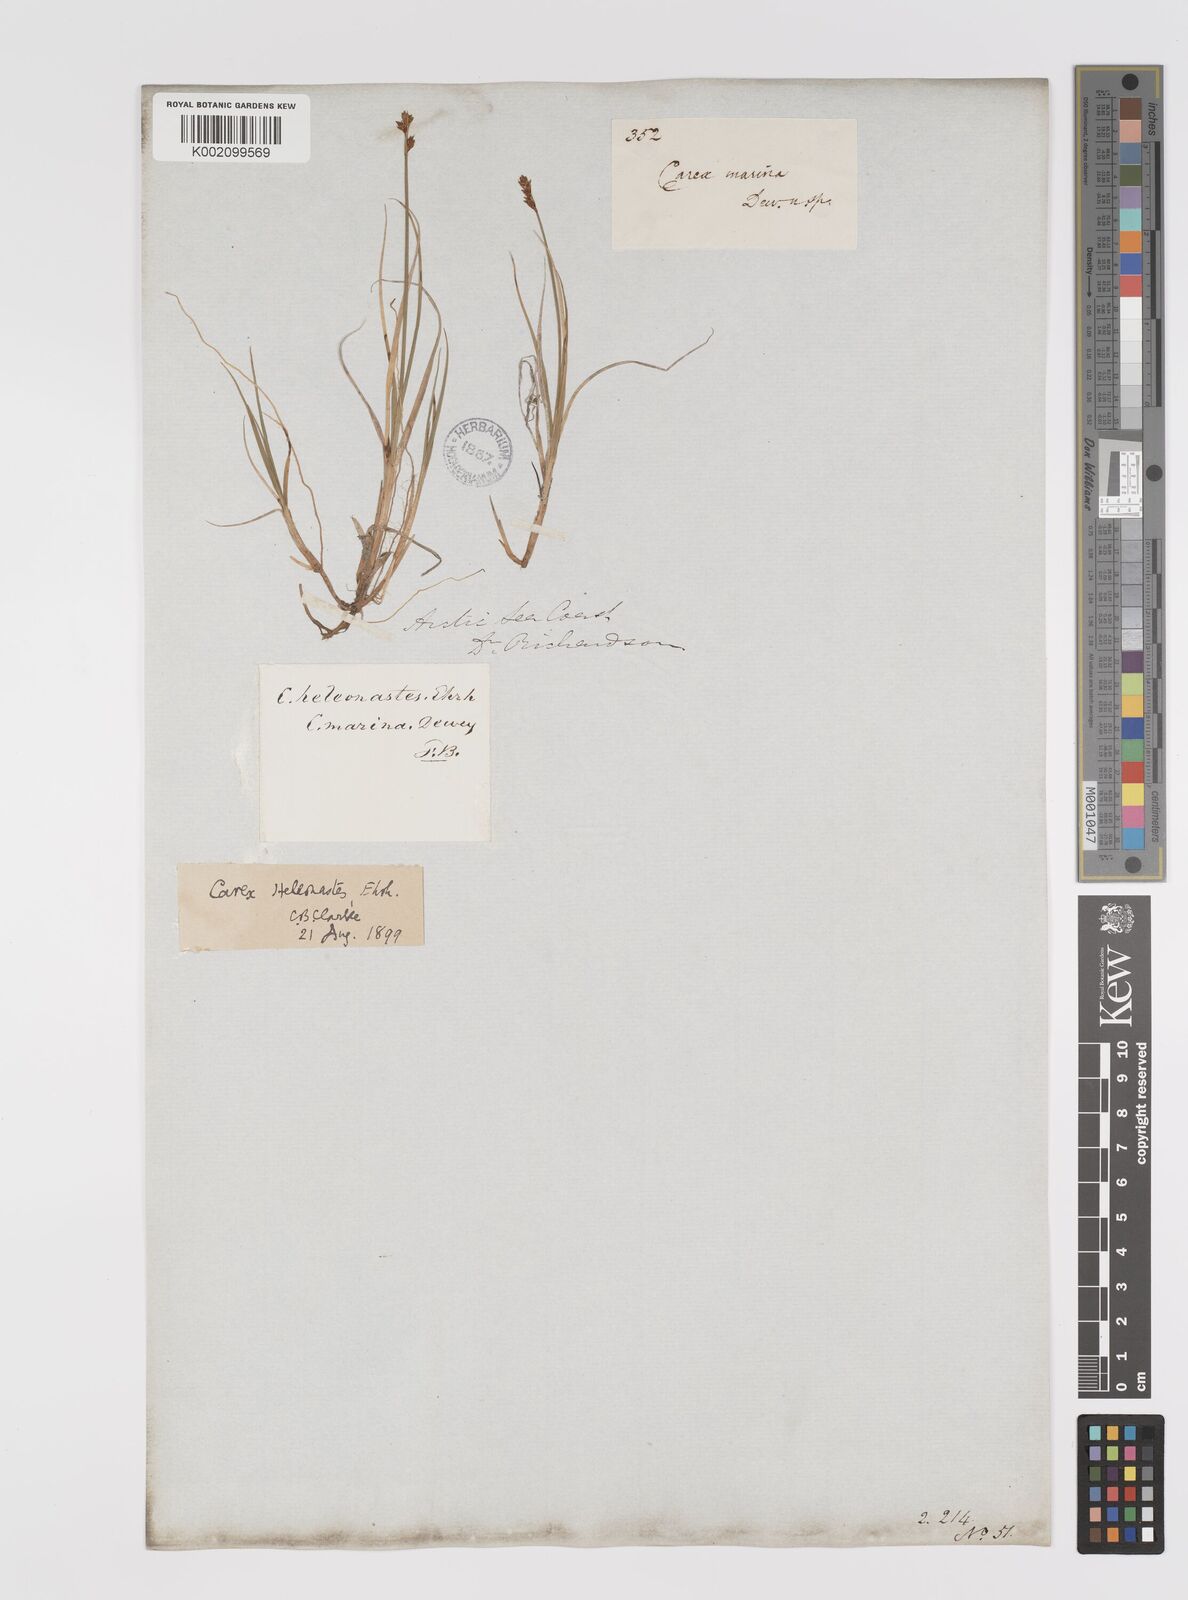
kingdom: Plantae
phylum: Tracheophyta
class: Liliopsida
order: Poales
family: Cyperaceae
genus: Carex
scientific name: Carex heleonastes
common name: Hudson bay sedge
